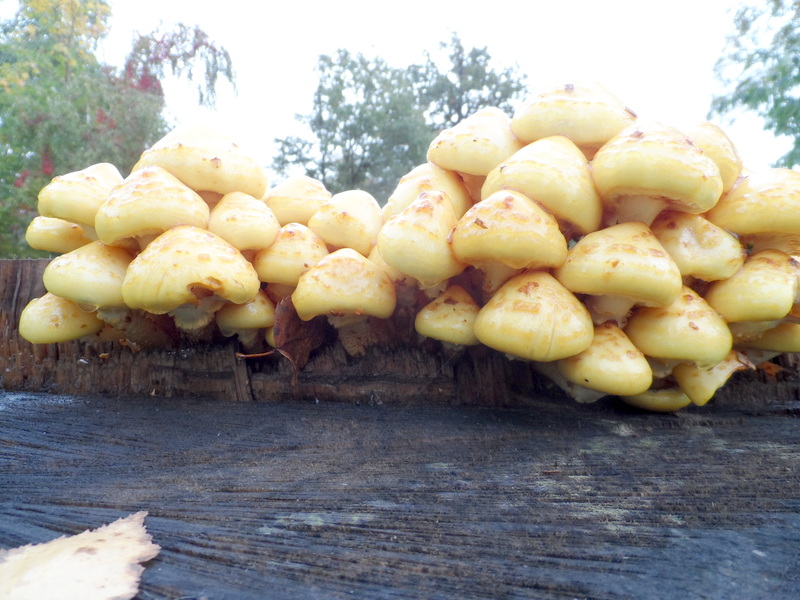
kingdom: Fungi
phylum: Basidiomycota
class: Agaricomycetes
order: Agaricales
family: Strophariaceae
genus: Pholiota
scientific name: Pholiota aurivella
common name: Golden scalycap
